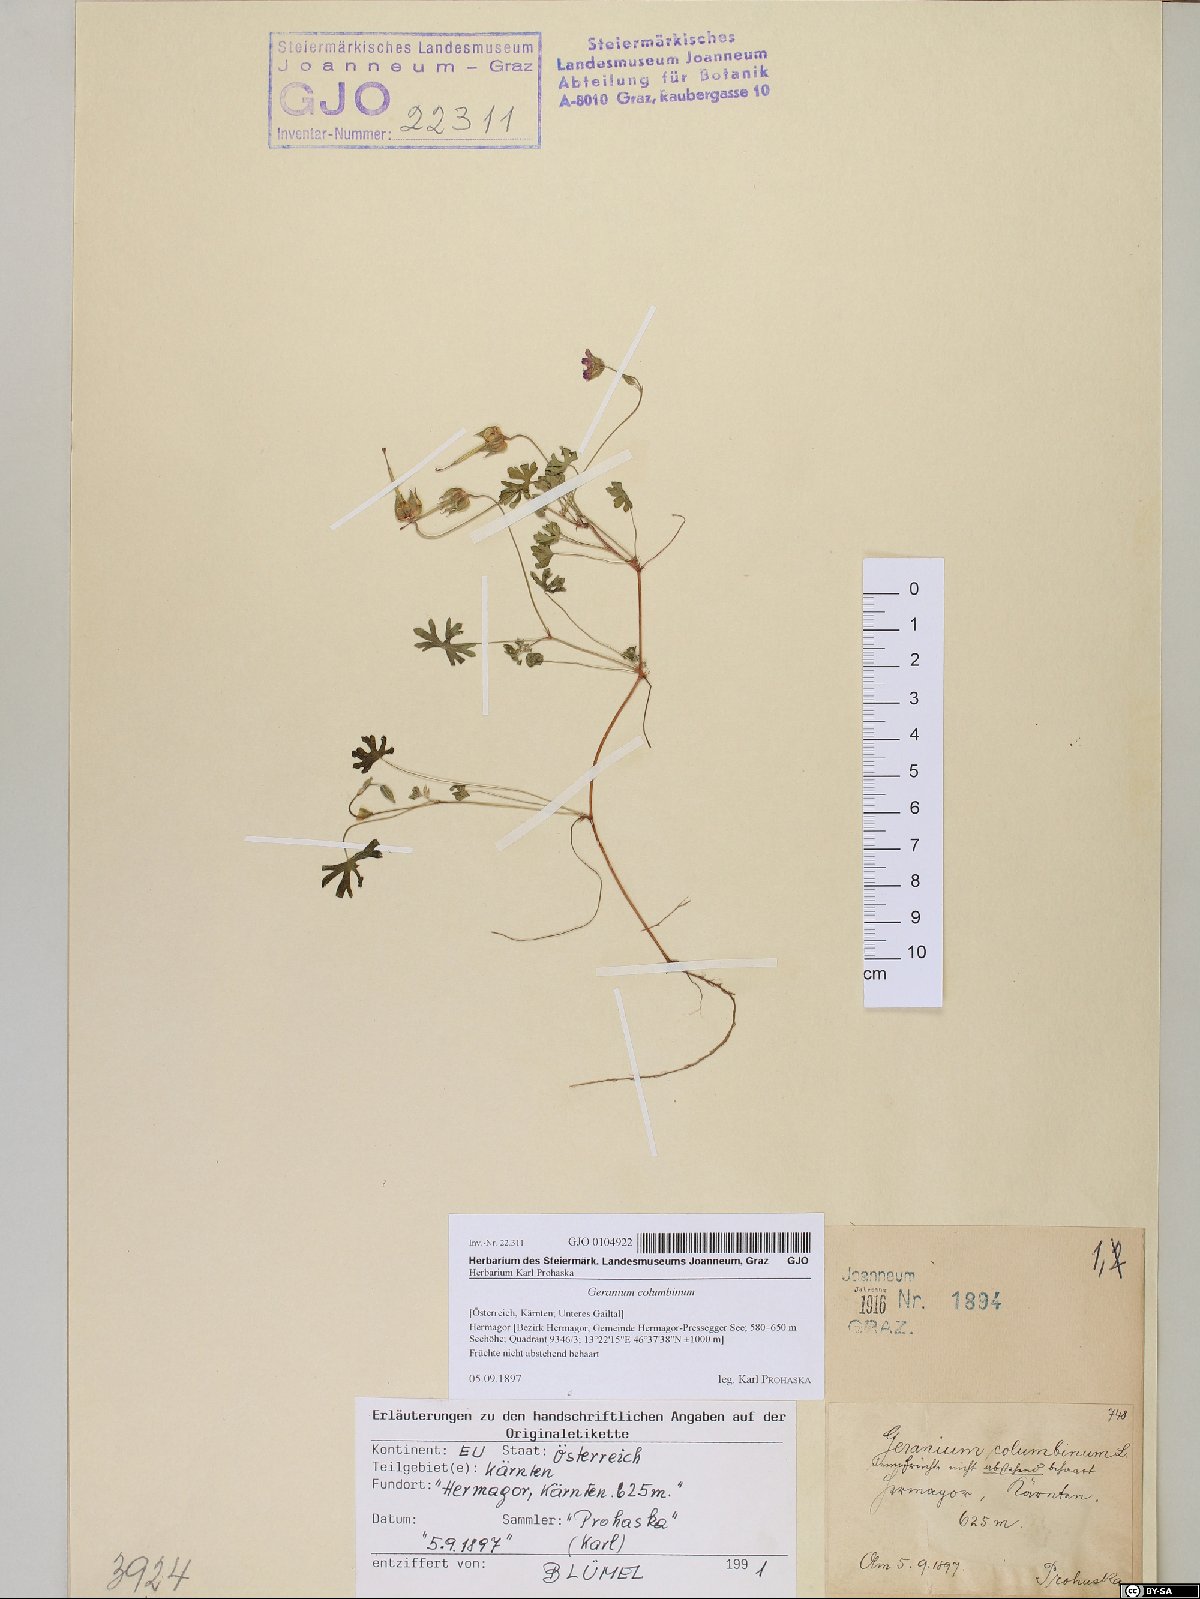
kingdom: Plantae
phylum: Tracheophyta
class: Magnoliopsida
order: Geraniales
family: Geraniaceae
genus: Geranium
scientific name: Geranium columbinum
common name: Long-stalked crane's-bill
